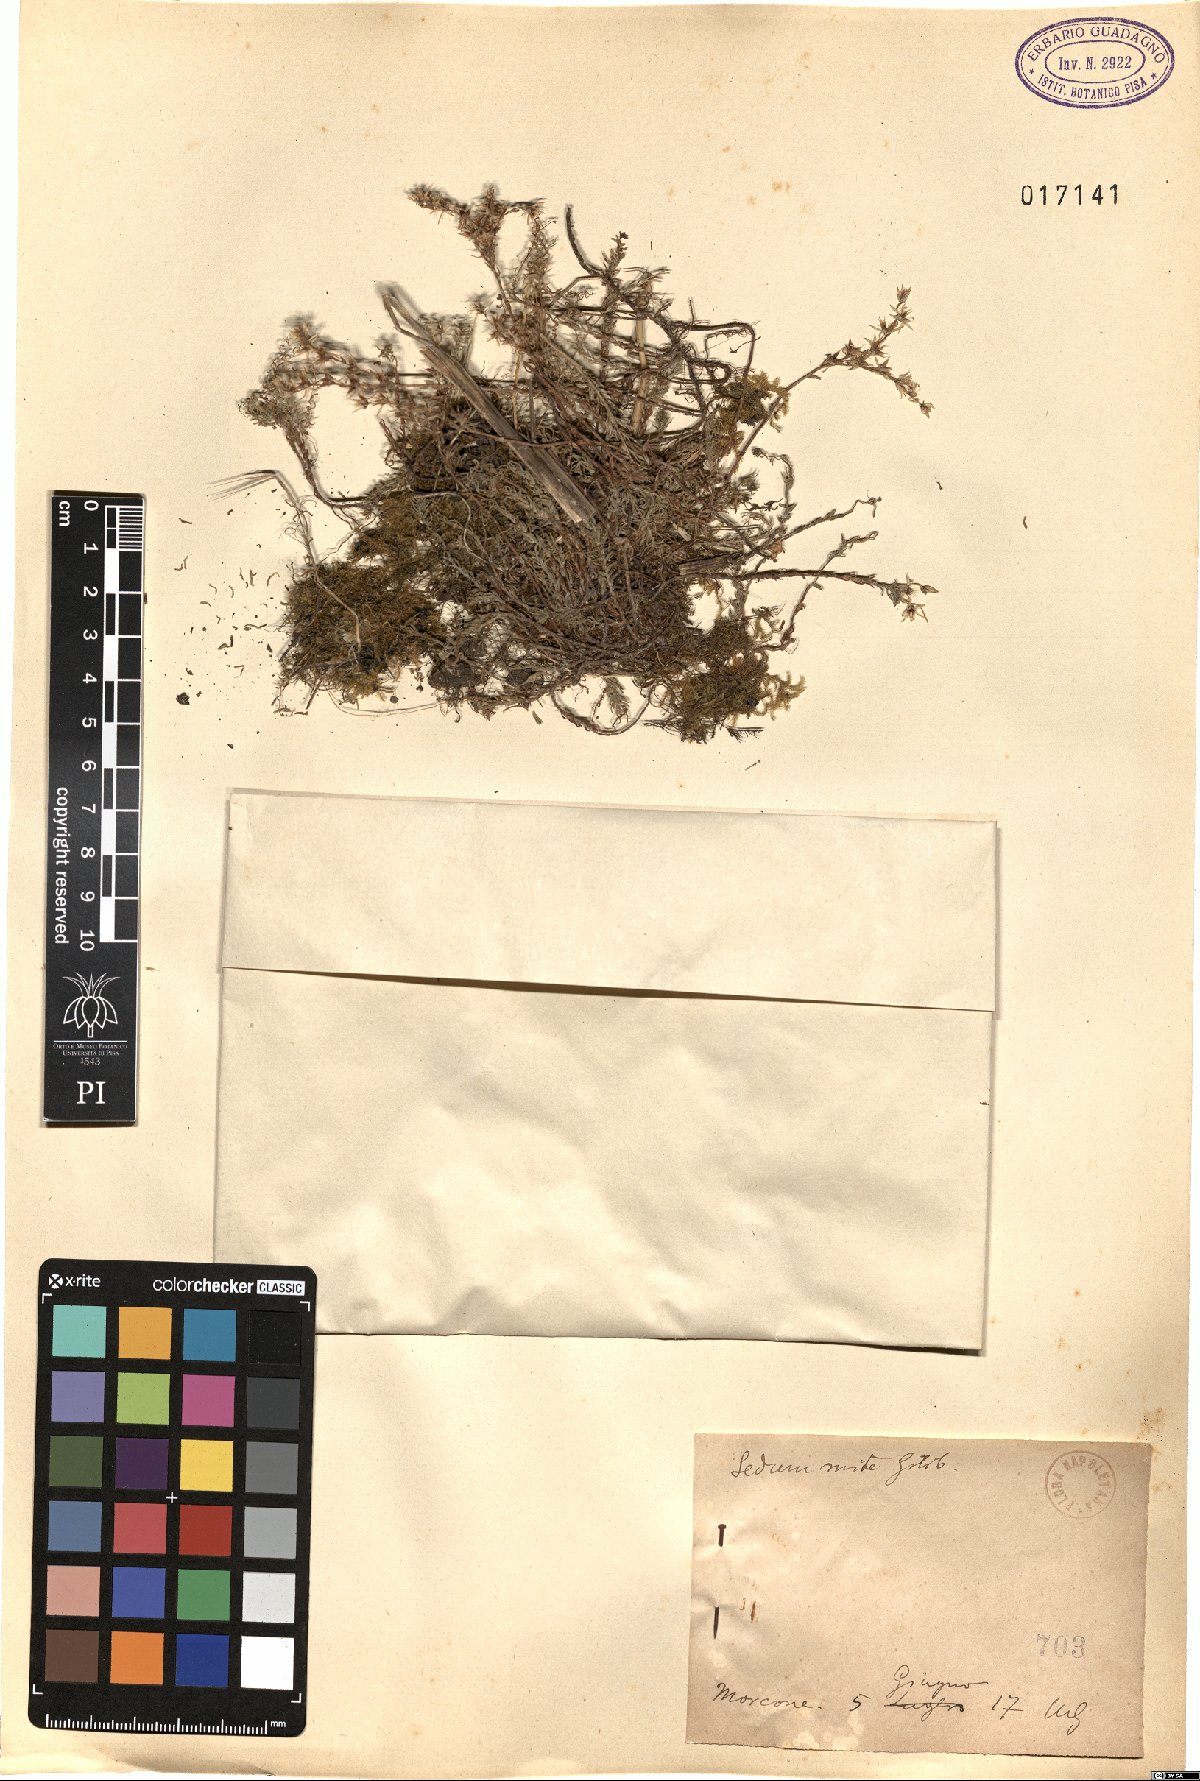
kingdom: Plantae
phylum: Tracheophyta
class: Magnoliopsida
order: Saxifragales
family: Crassulaceae
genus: Sedum
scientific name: Sedum sexangulare
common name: Tasteless stonecrop
